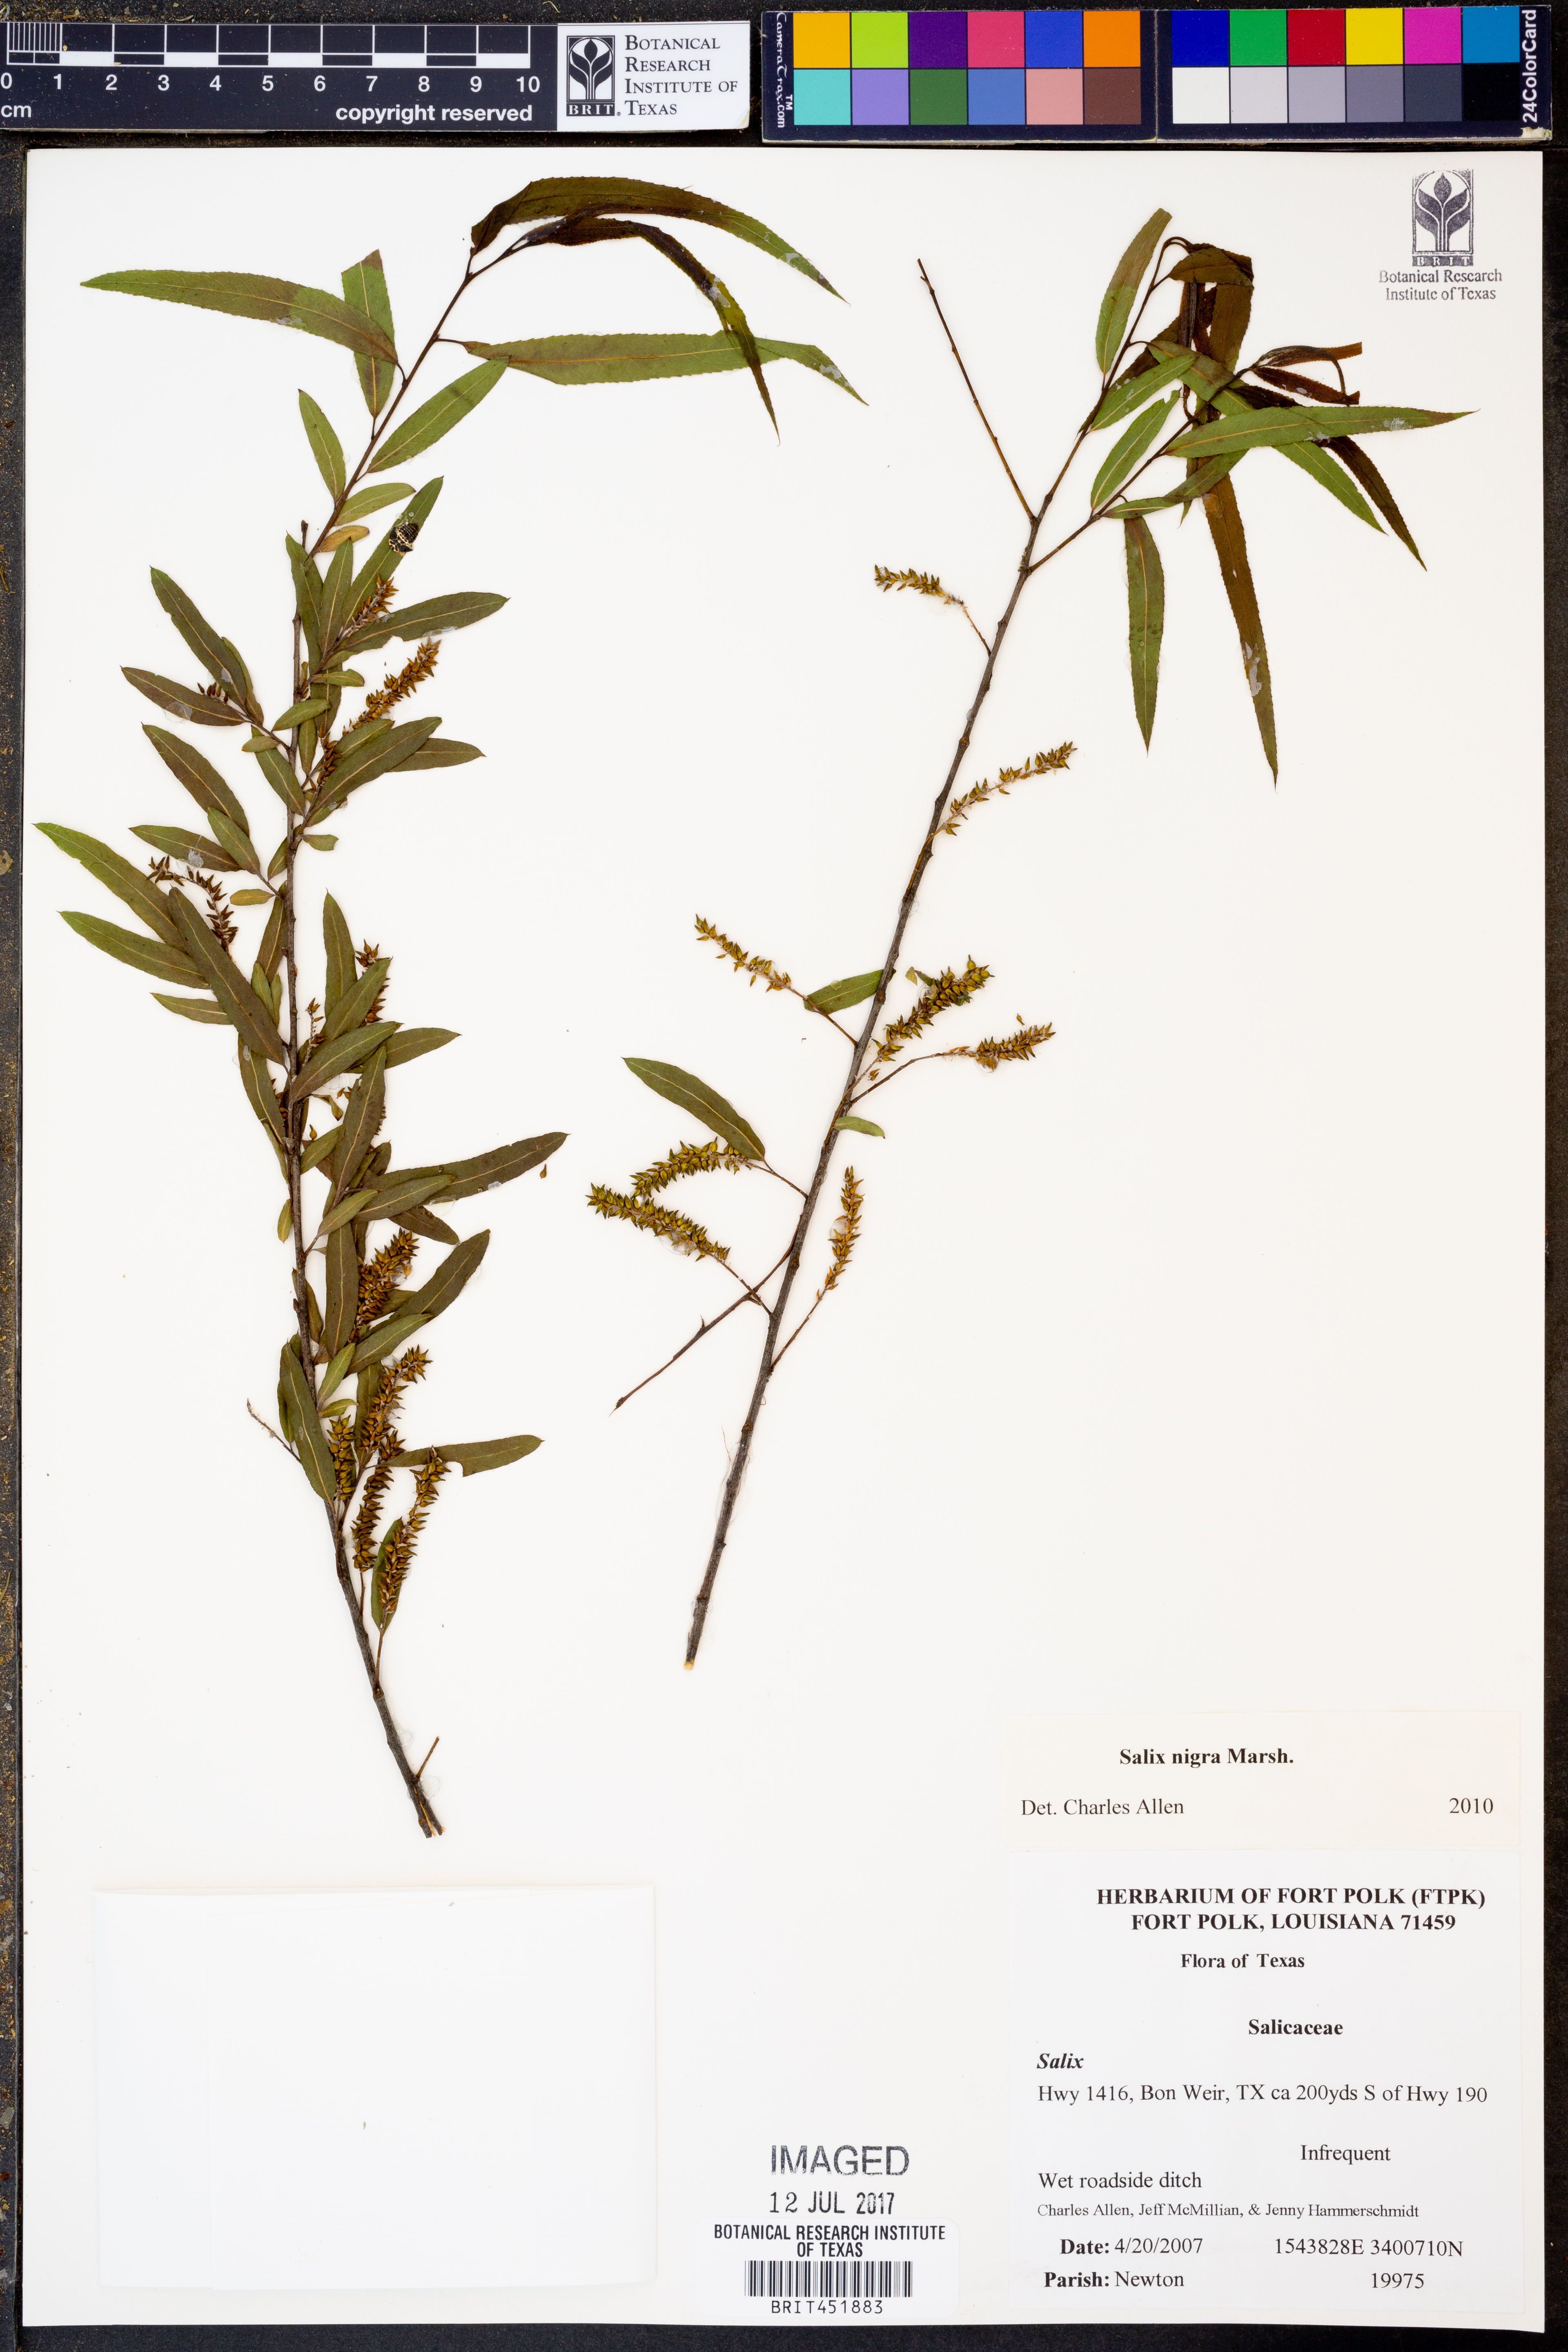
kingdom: Plantae
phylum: Tracheophyta
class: Magnoliopsida
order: Malpighiales
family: Salicaceae
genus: Salix
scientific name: Salix nigra
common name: Black willow
